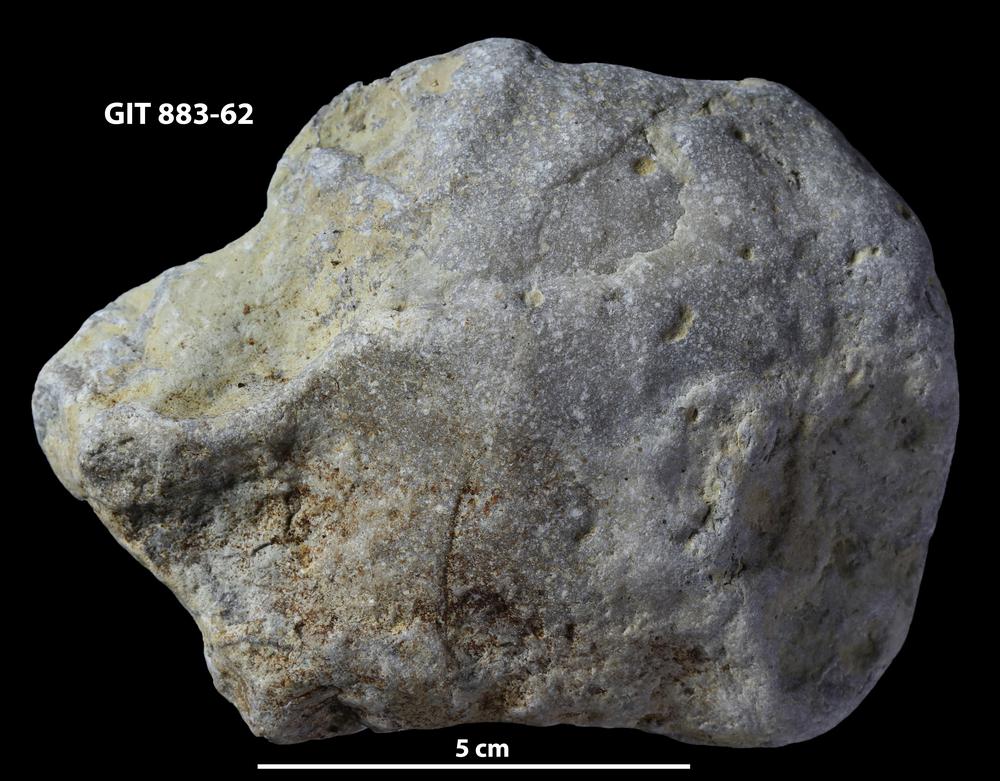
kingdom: Animalia
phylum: Porifera
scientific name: Porifera
